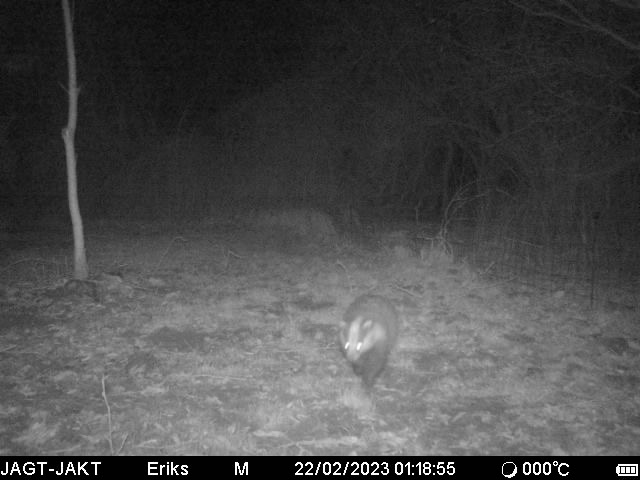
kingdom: Animalia
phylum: Chordata
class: Mammalia
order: Carnivora
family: Mustelidae
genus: Meles
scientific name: Meles meles
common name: Grævling
